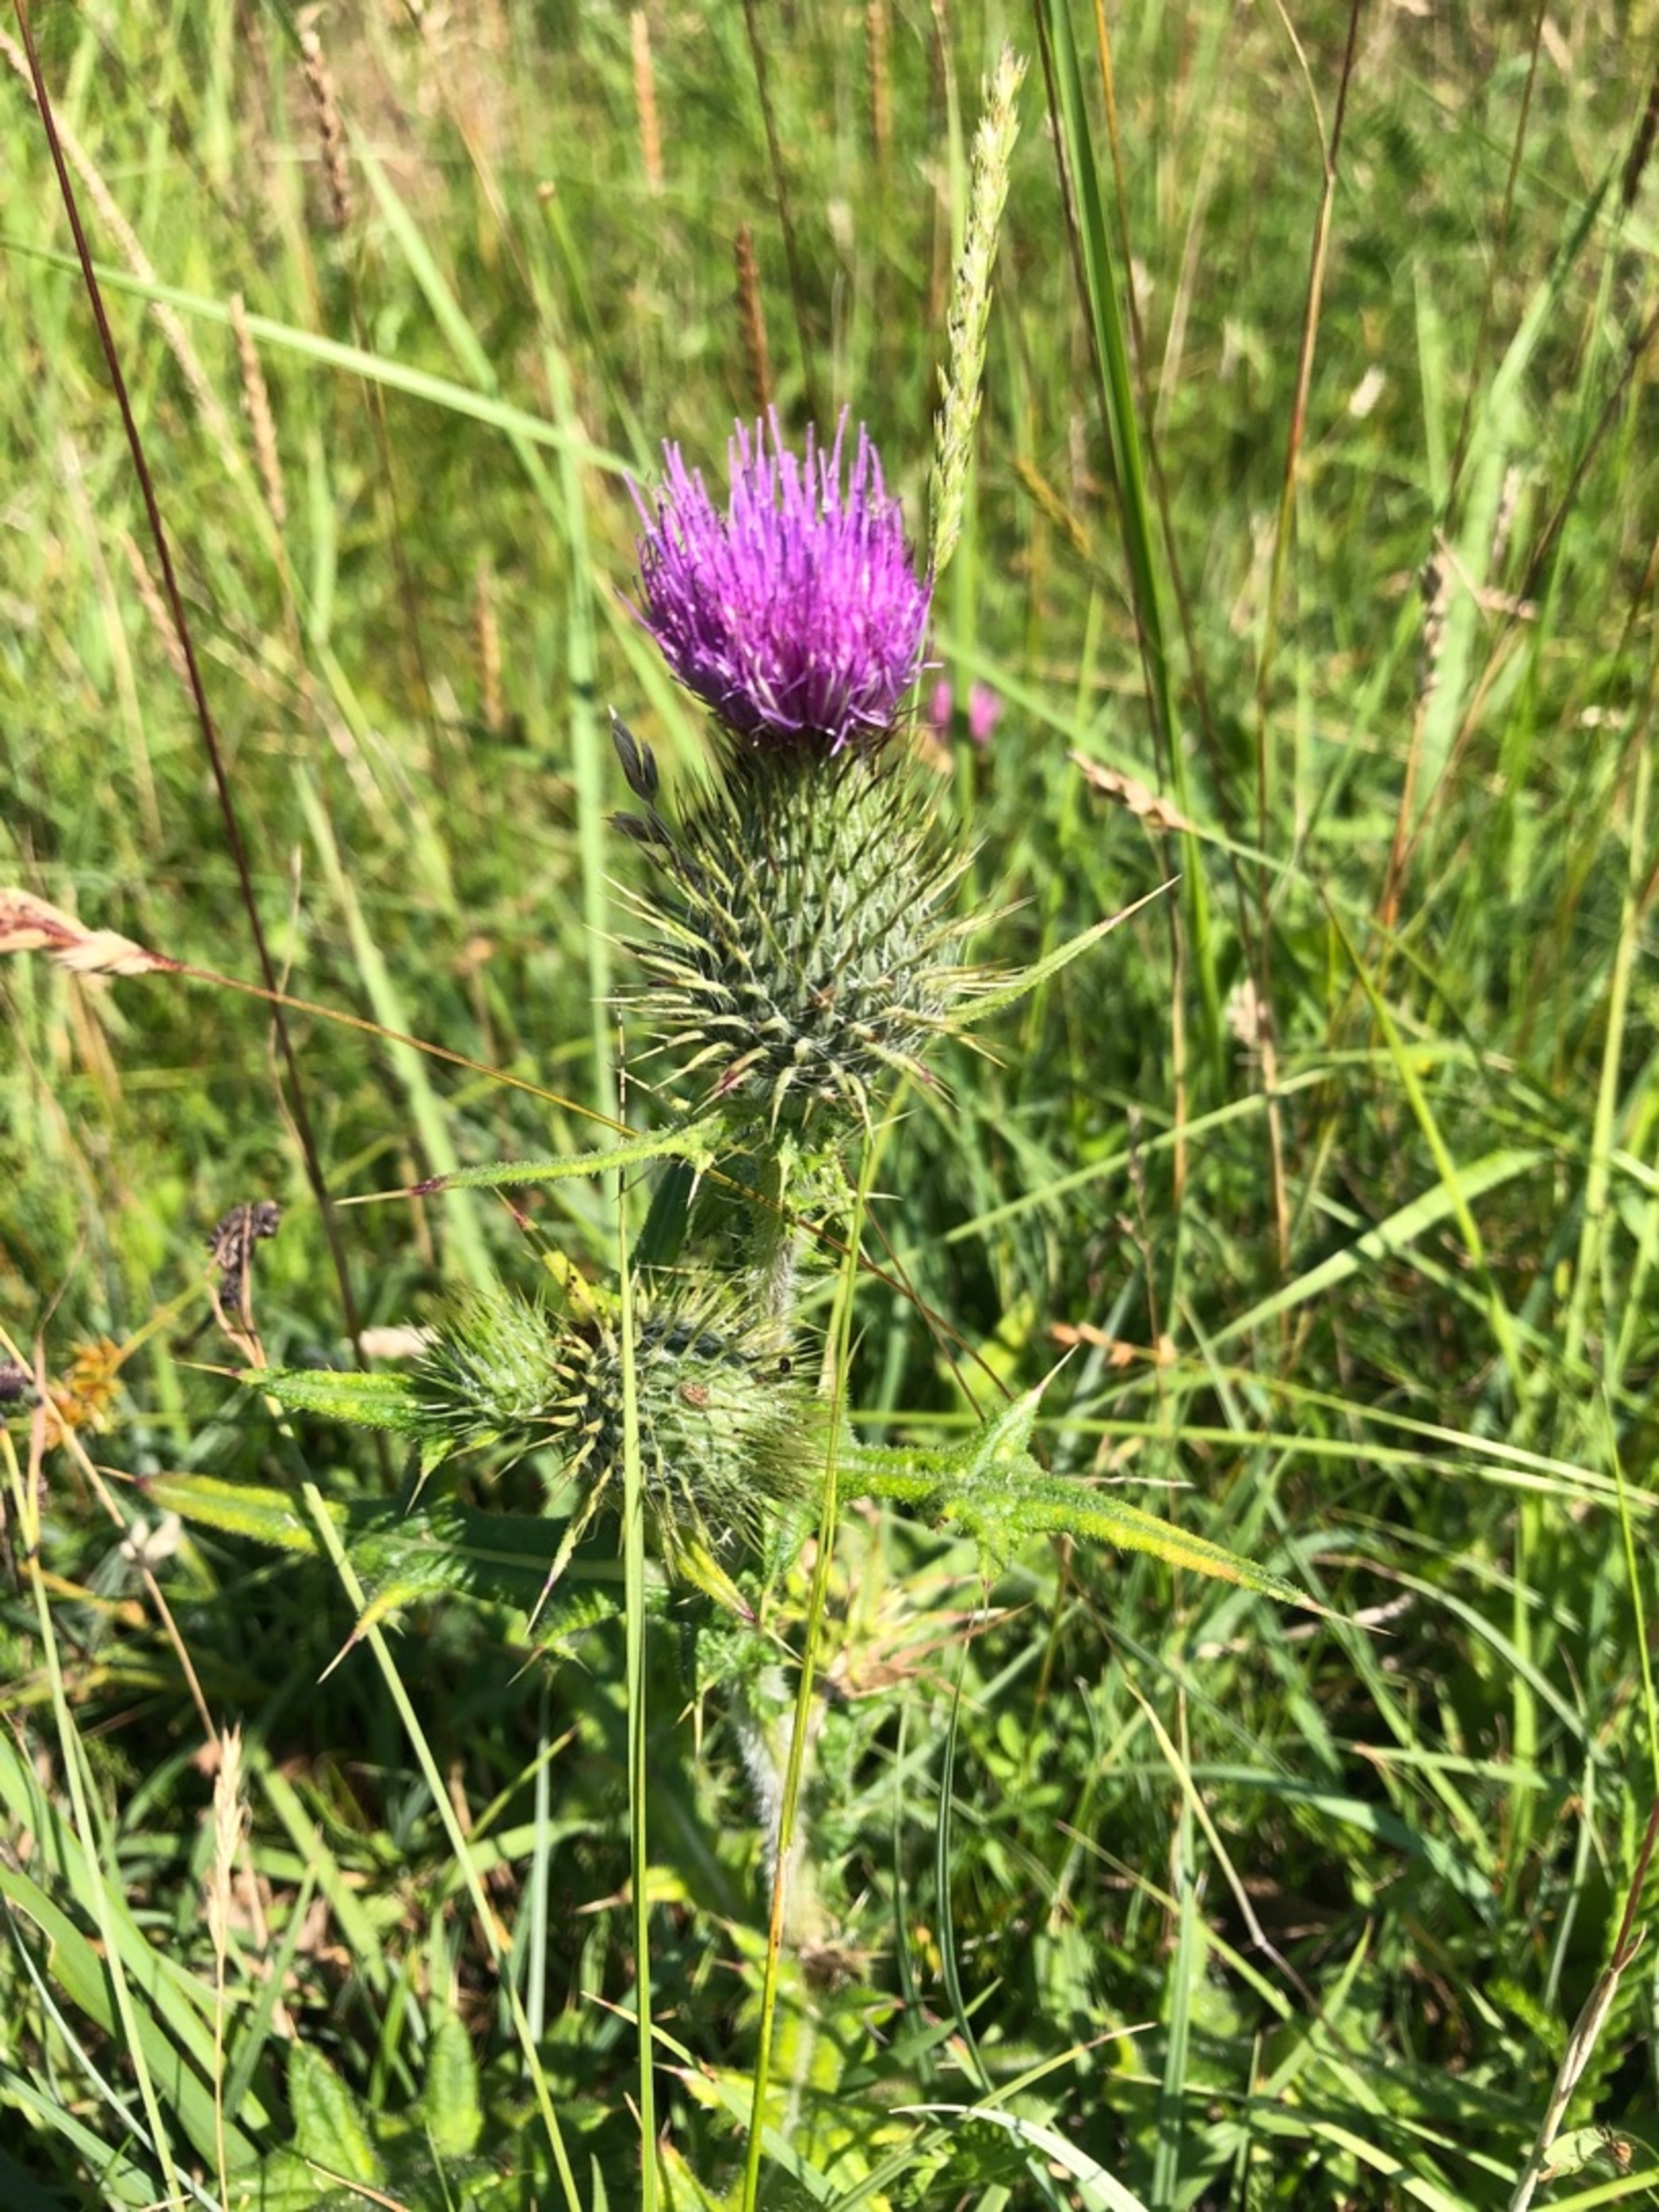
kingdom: Plantae
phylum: Tracheophyta
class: Magnoliopsida
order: Asterales
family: Asteraceae
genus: Cirsium
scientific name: Cirsium vulgare
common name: Horse-tidsel
